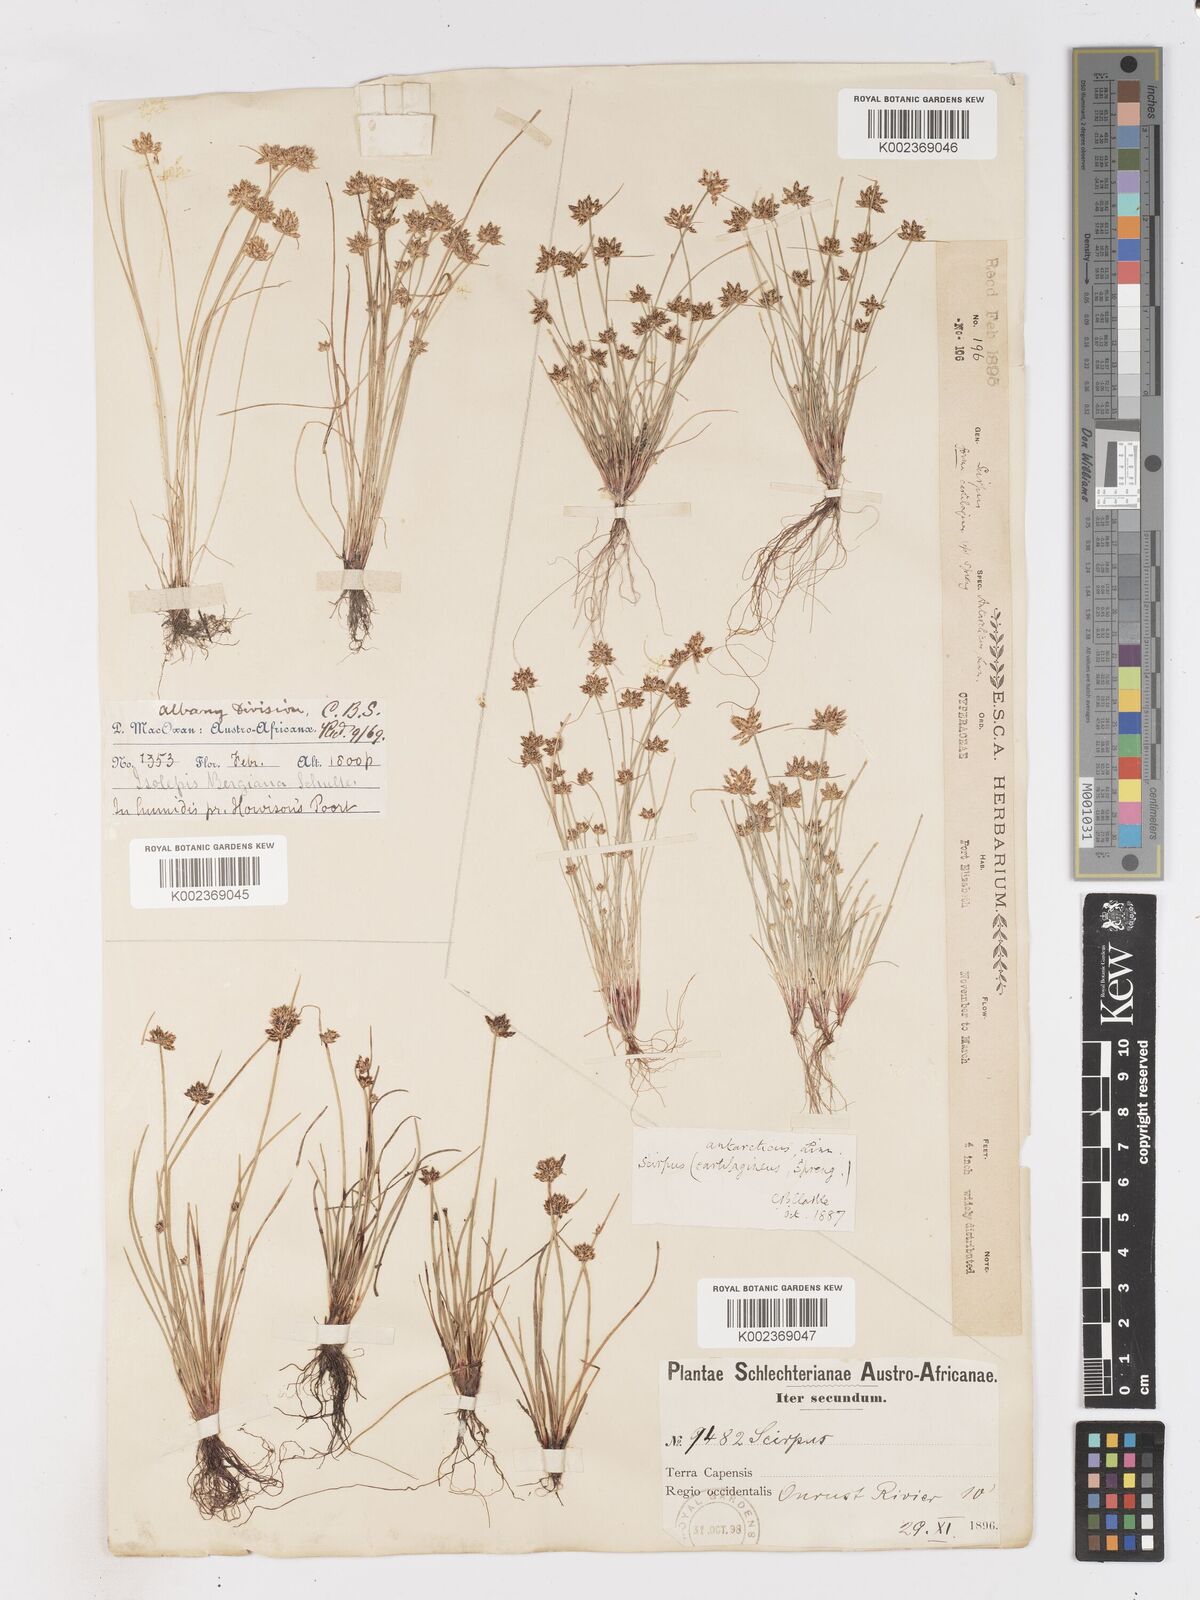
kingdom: Plantae
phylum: Tracheophyta
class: Liliopsida
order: Poales
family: Cyperaceae
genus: Isolepis
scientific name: Isolepis diabolica
